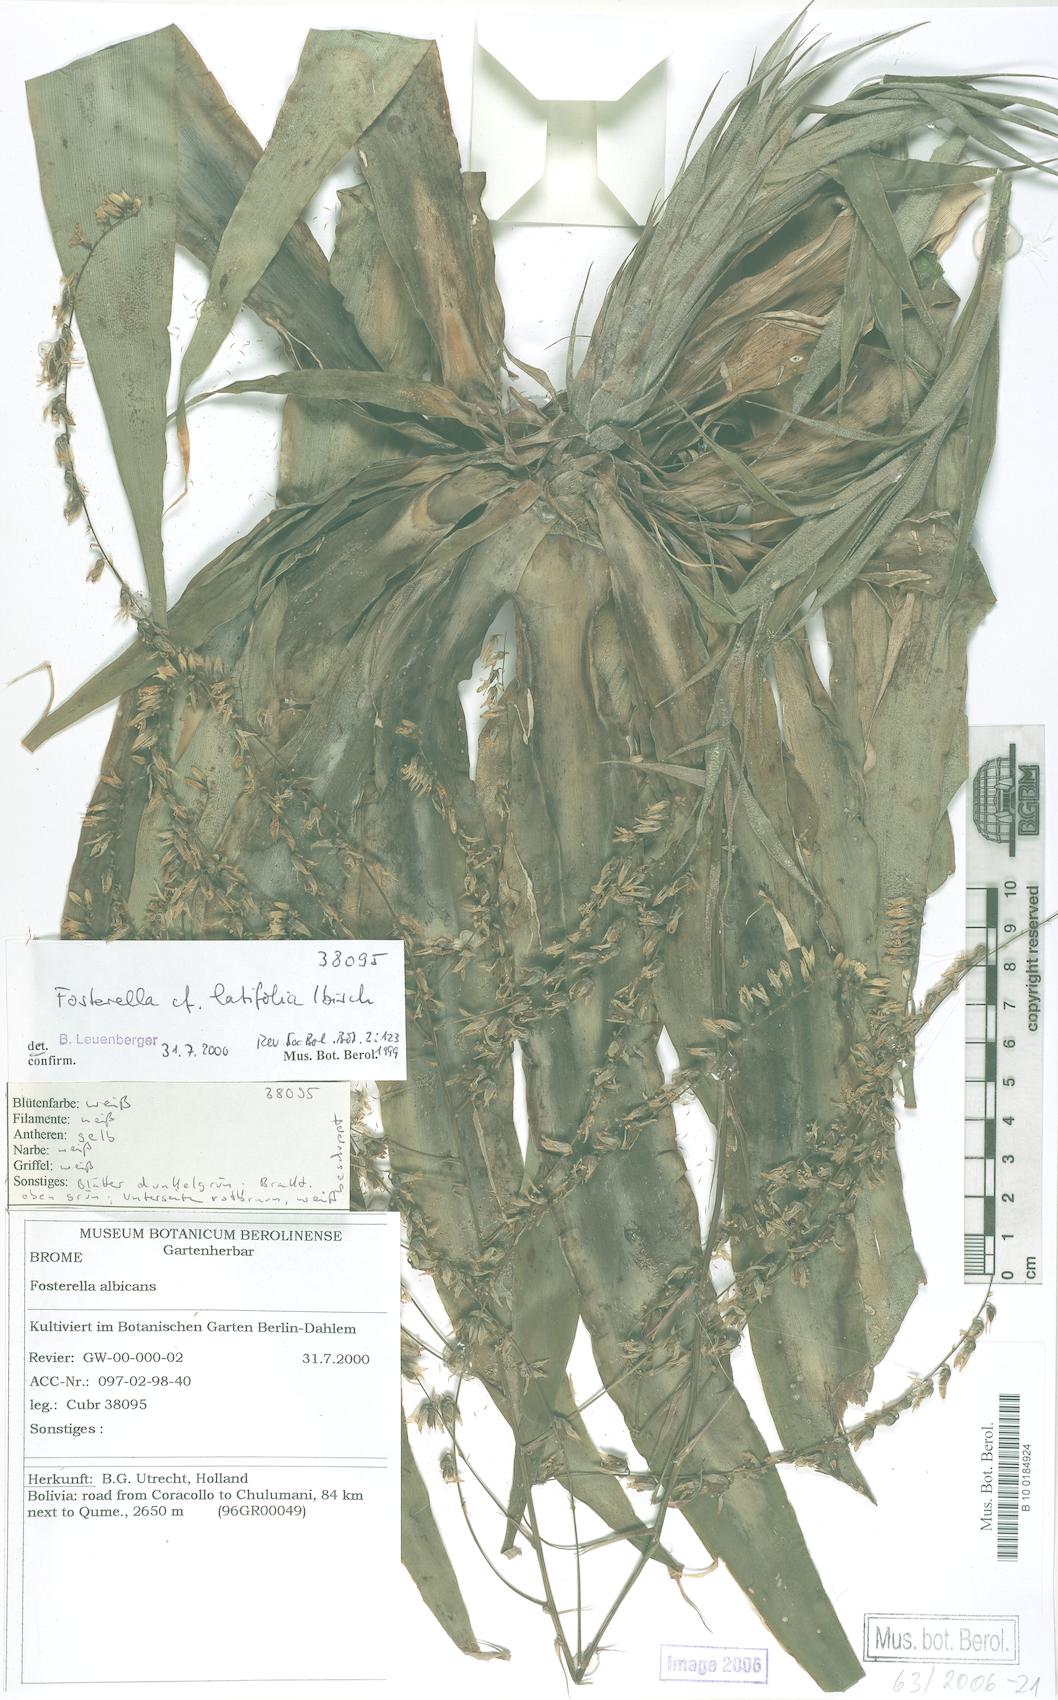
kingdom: Plantae
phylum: Tracheophyta
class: Liliopsida
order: Poales
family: Bromeliaceae
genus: Fosterella
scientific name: Fosterella penduliflora
